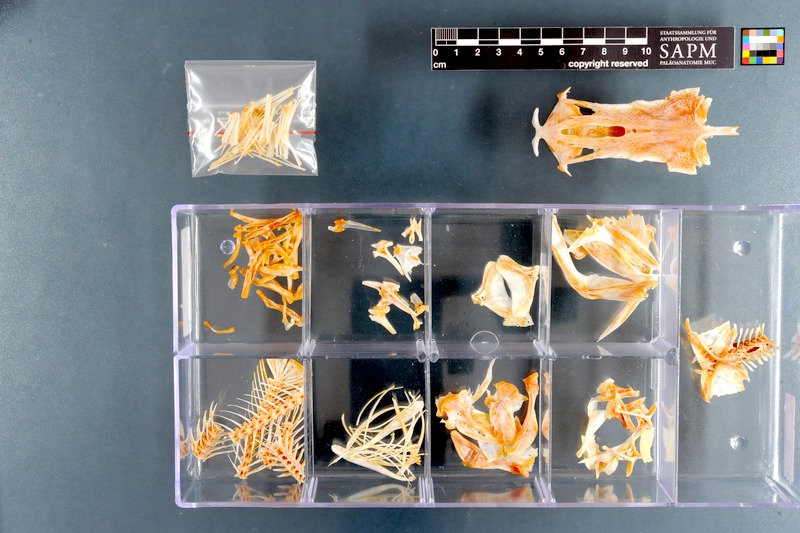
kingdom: Animalia
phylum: Chordata
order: Siluriformes
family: Ariidae
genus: Galeichthys
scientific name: Galeichthys feliceps
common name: White seacatfish
